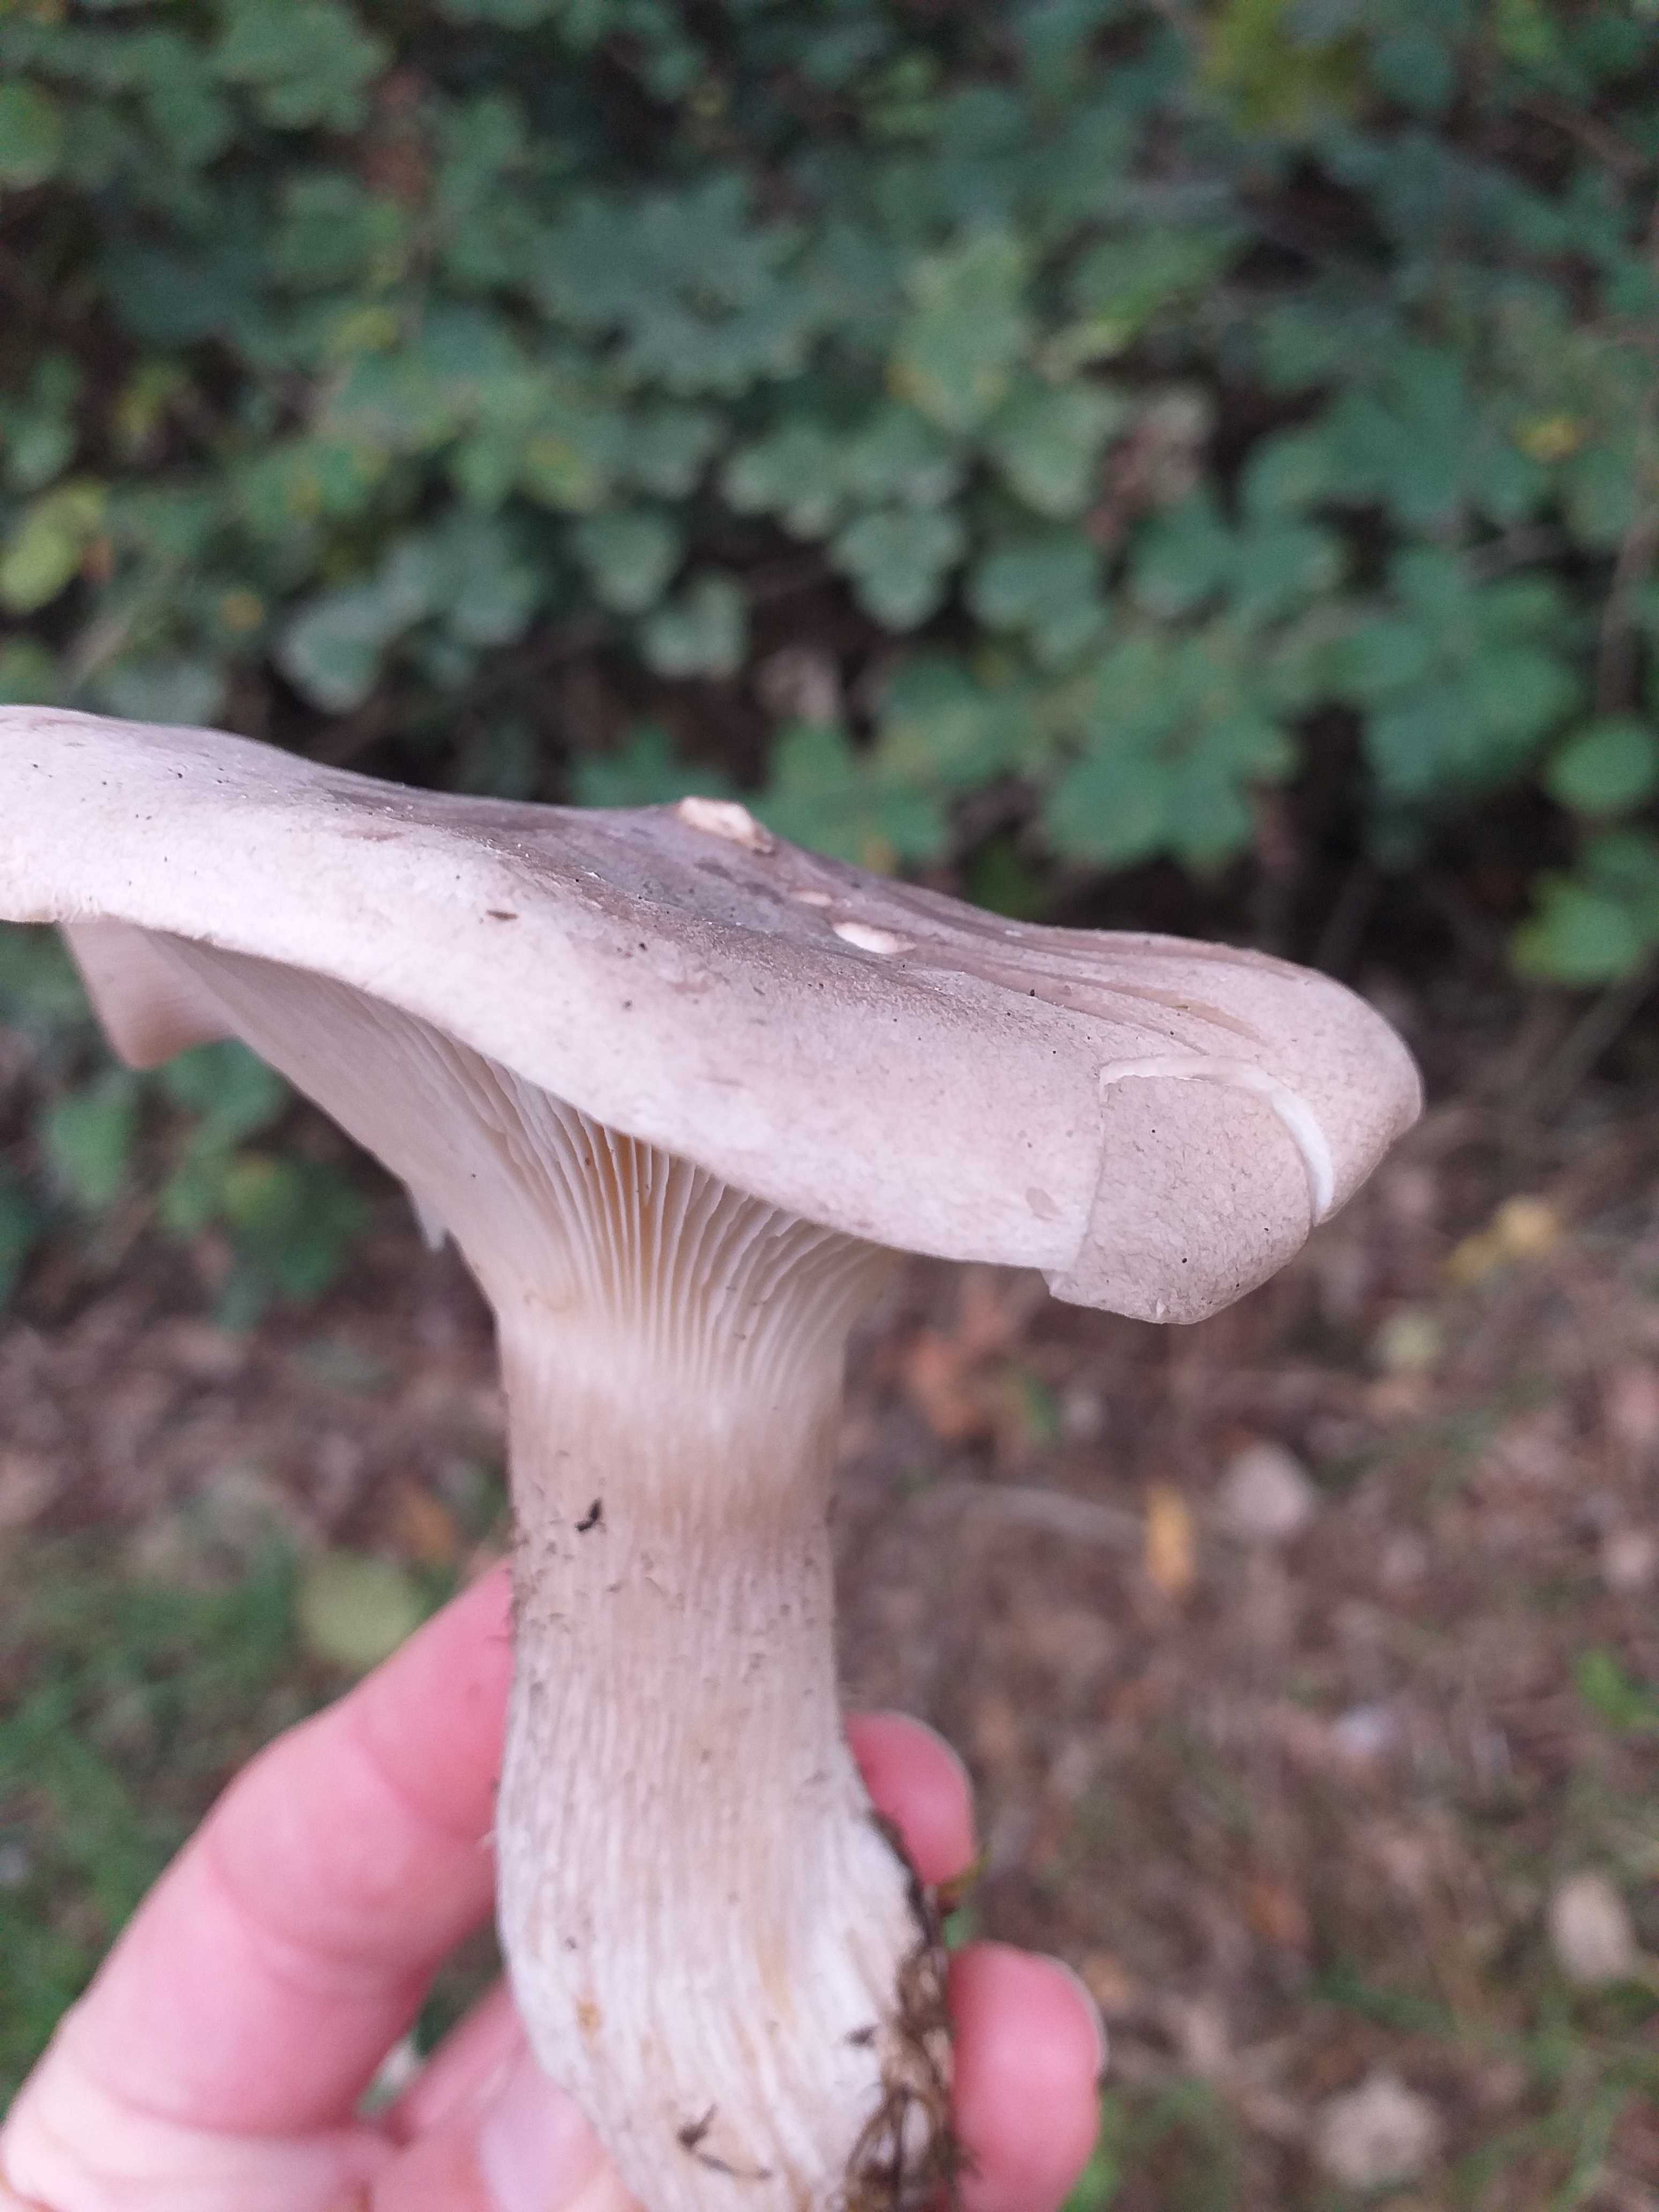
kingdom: Fungi
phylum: Basidiomycota
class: Agaricomycetes
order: Agaricales
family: Tricholomataceae
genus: Clitocybe
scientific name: Clitocybe nebularis
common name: tåge-tragthat
